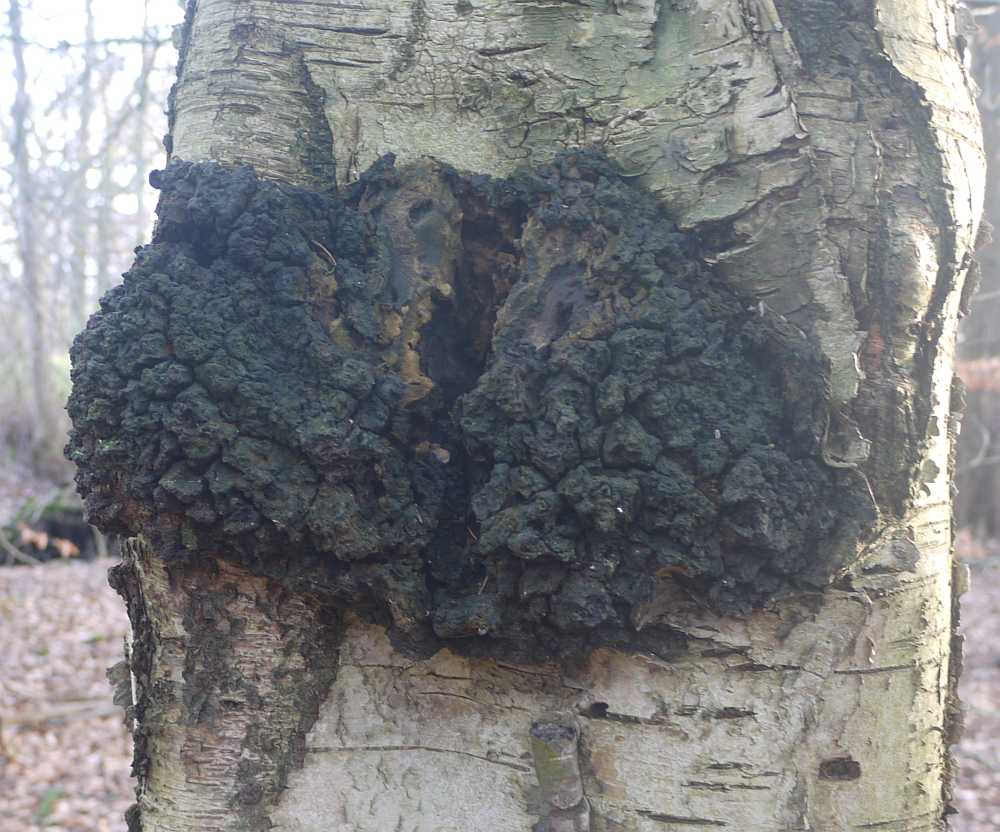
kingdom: Fungi
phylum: Basidiomycota
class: Agaricomycetes
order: Hymenochaetales
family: Hymenochaetaceae
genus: Inonotus
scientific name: Inonotus obliquus
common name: birke-spejlporesvamp
